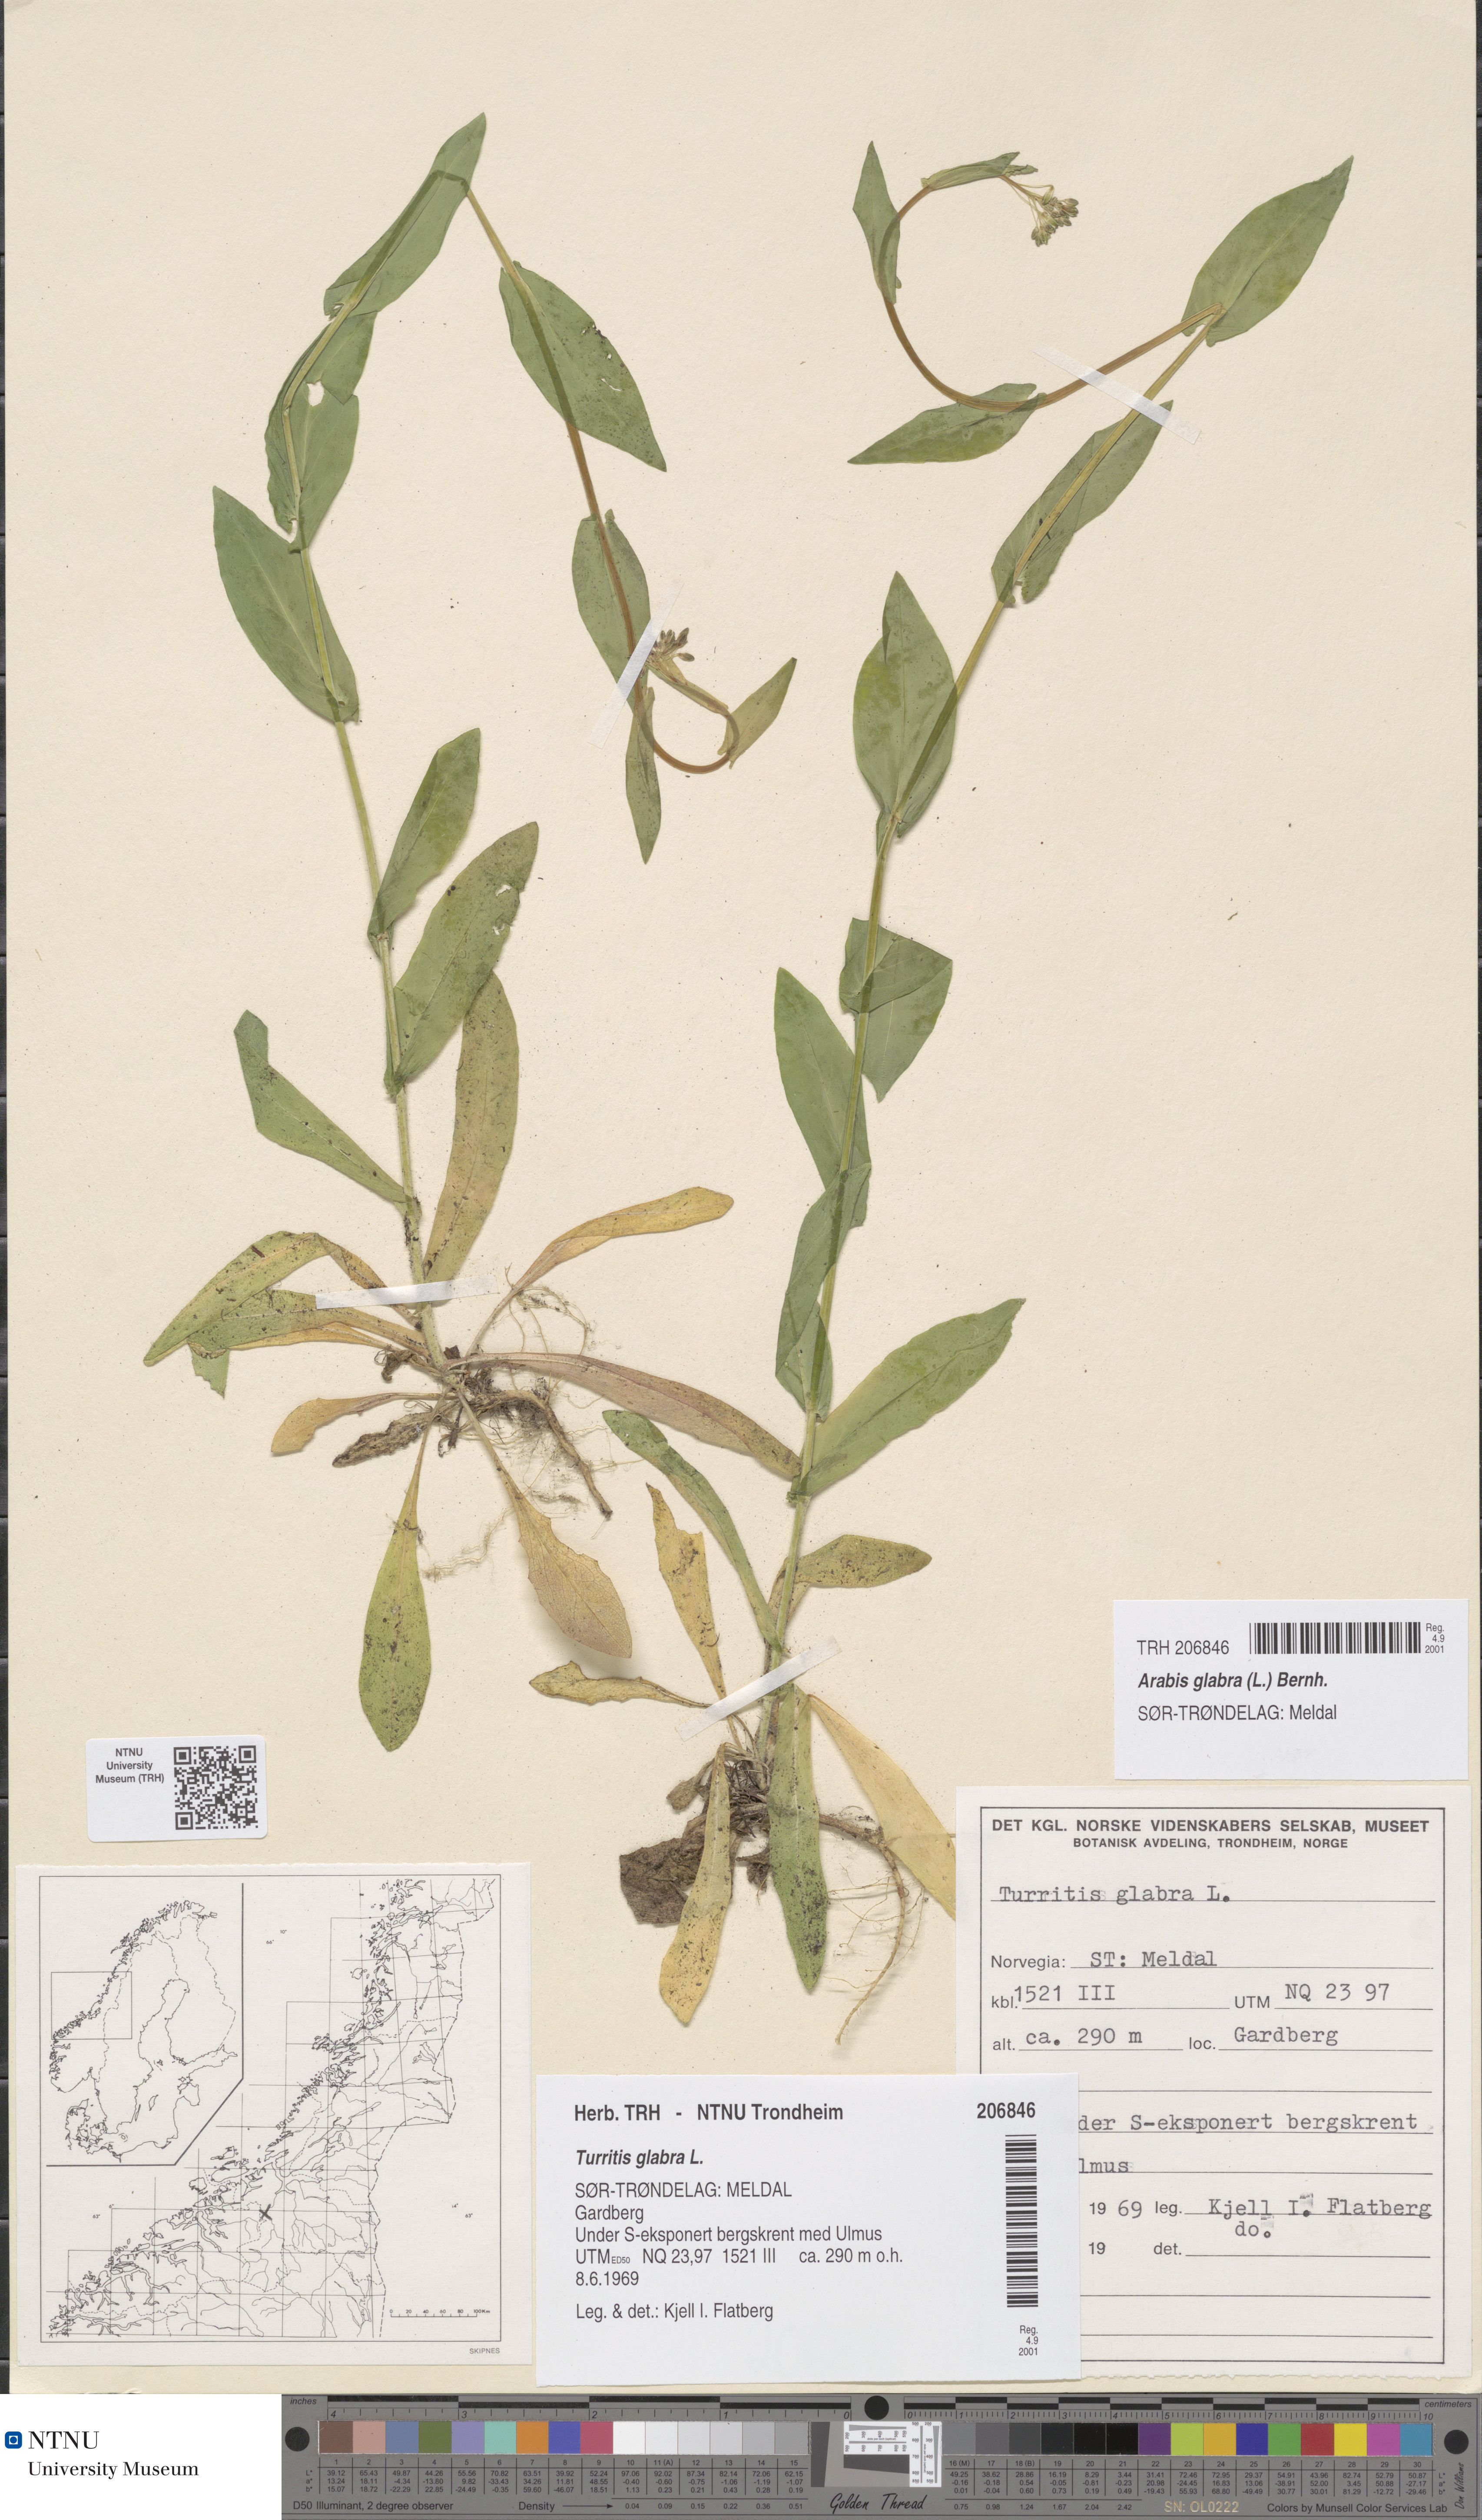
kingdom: Plantae
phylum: Tracheophyta
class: Magnoliopsida
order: Brassicales
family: Brassicaceae
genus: Turritis
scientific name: Turritis glabra
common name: Tower rockcress
